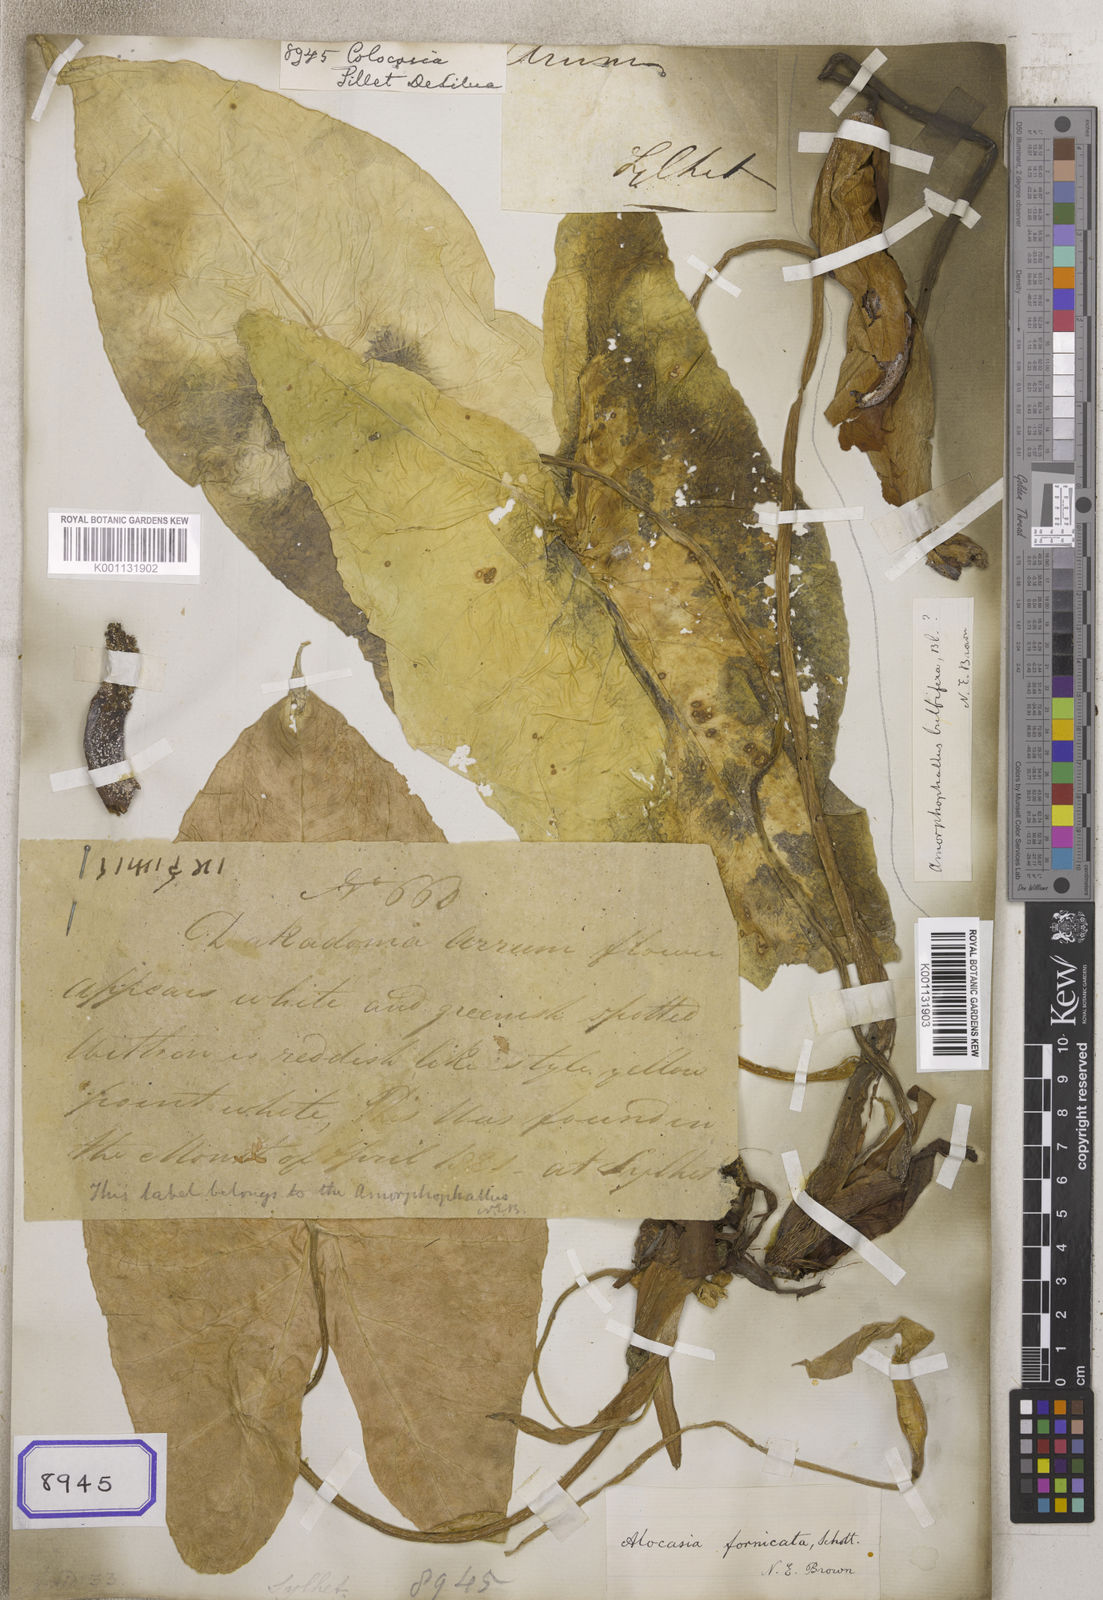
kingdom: Plantae
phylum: Tracheophyta
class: Liliopsida
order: Alismatales
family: Araceae
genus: Colocasia
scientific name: Colocasia spec
